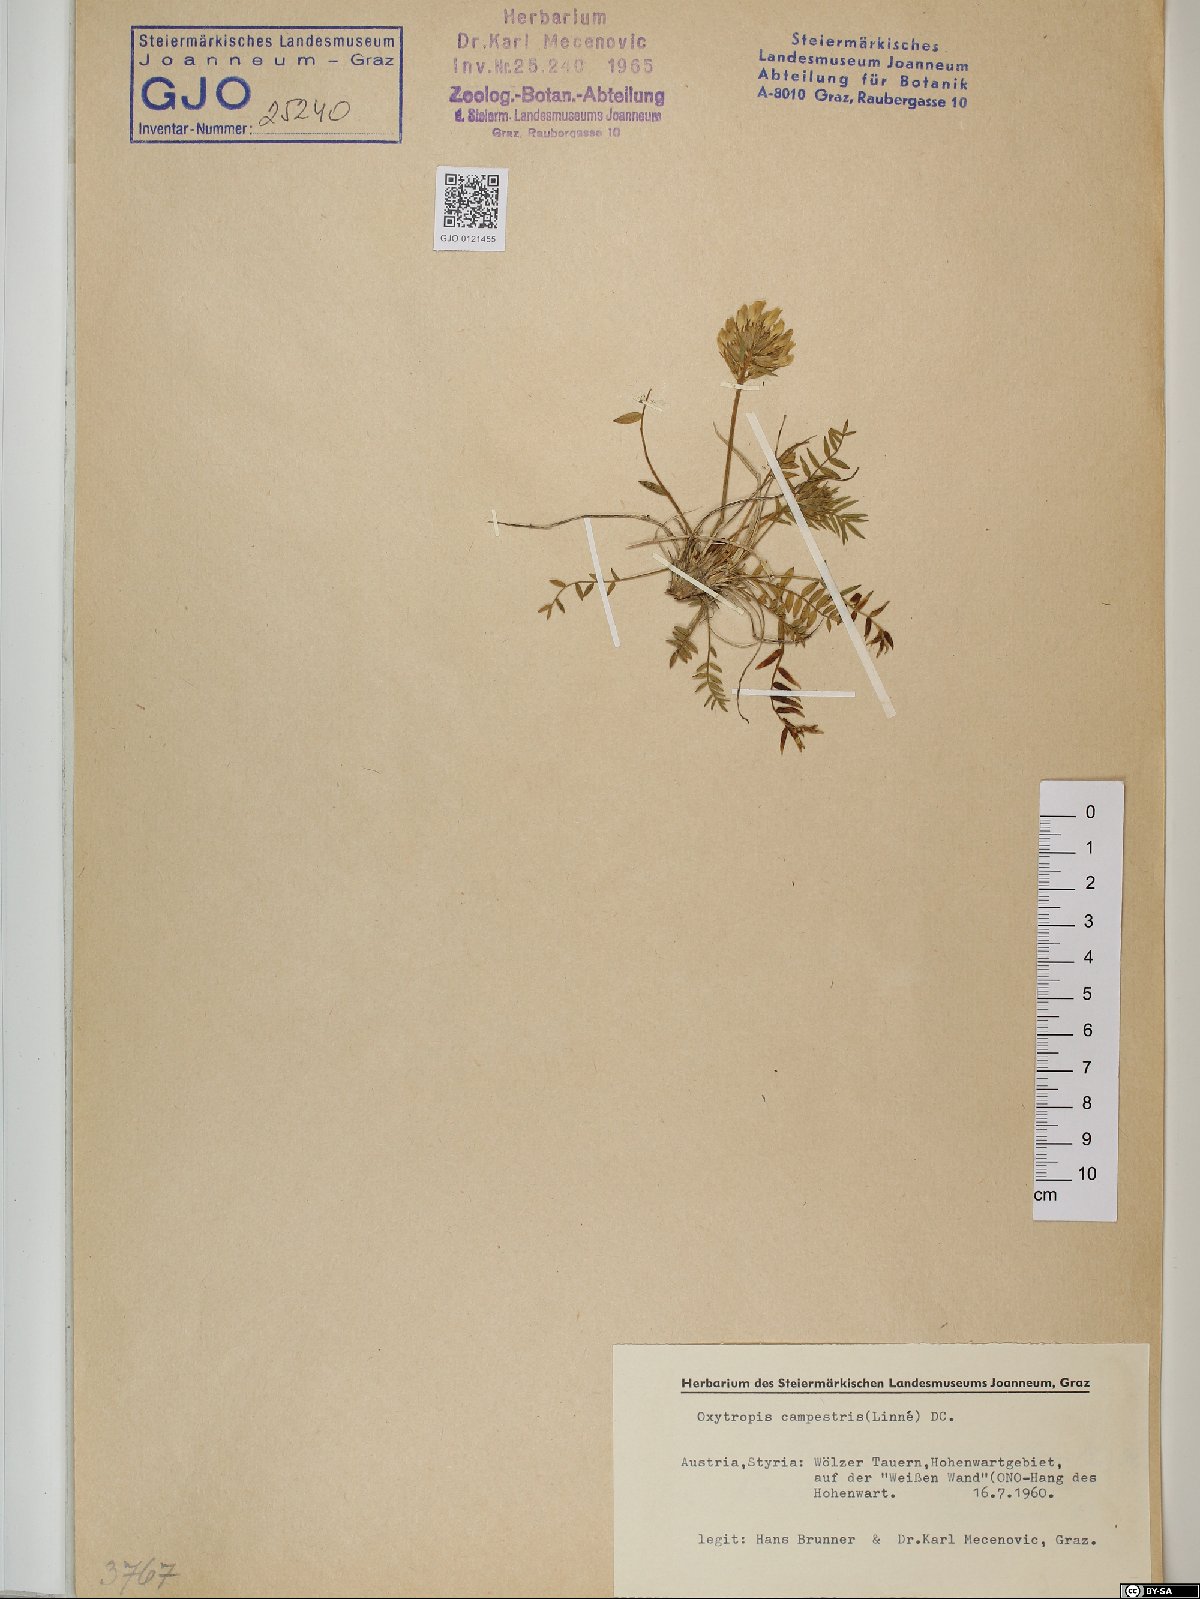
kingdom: Plantae
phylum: Tracheophyta
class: Magnoliopsida
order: Fabales
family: Fabaceae
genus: Oxytropis
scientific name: Oxytropis campestris
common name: Field locoweed
